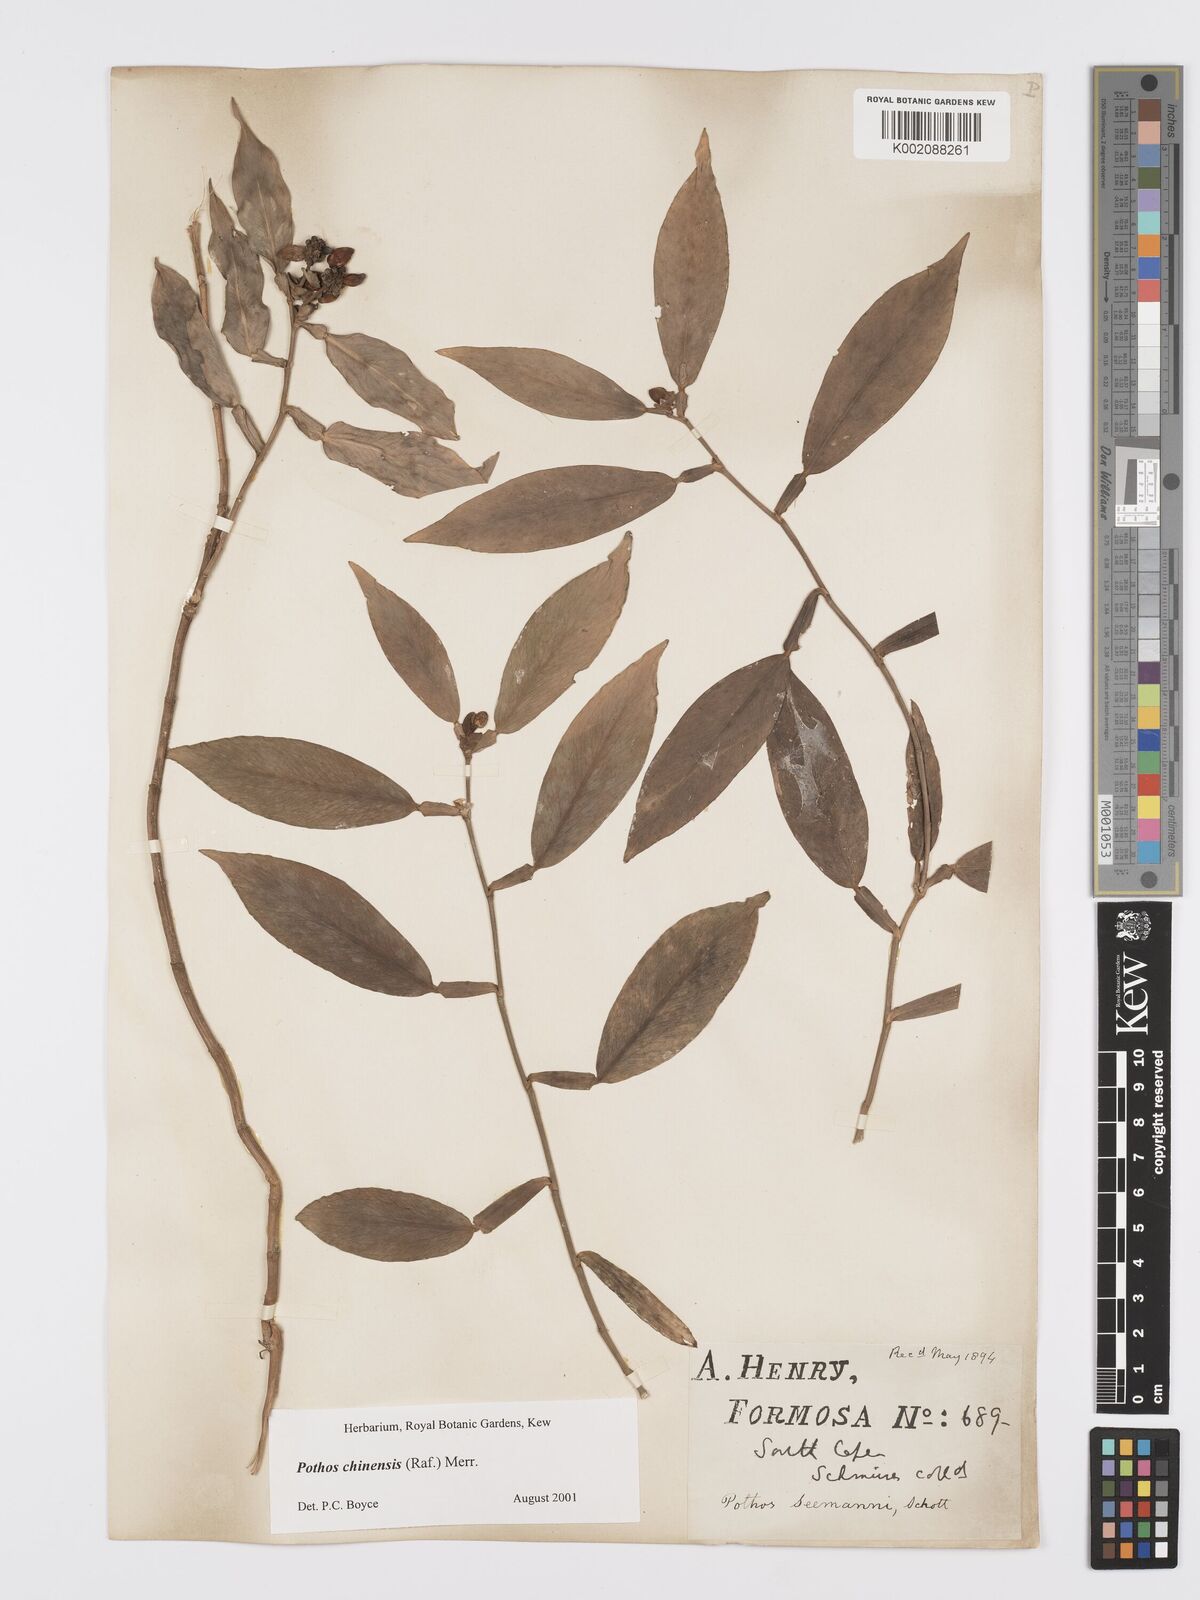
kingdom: Plantae
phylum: Tracheophyta
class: Liliopsida
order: Alismatales
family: Araceae
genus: Pothos
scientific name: Pothos chinensis
